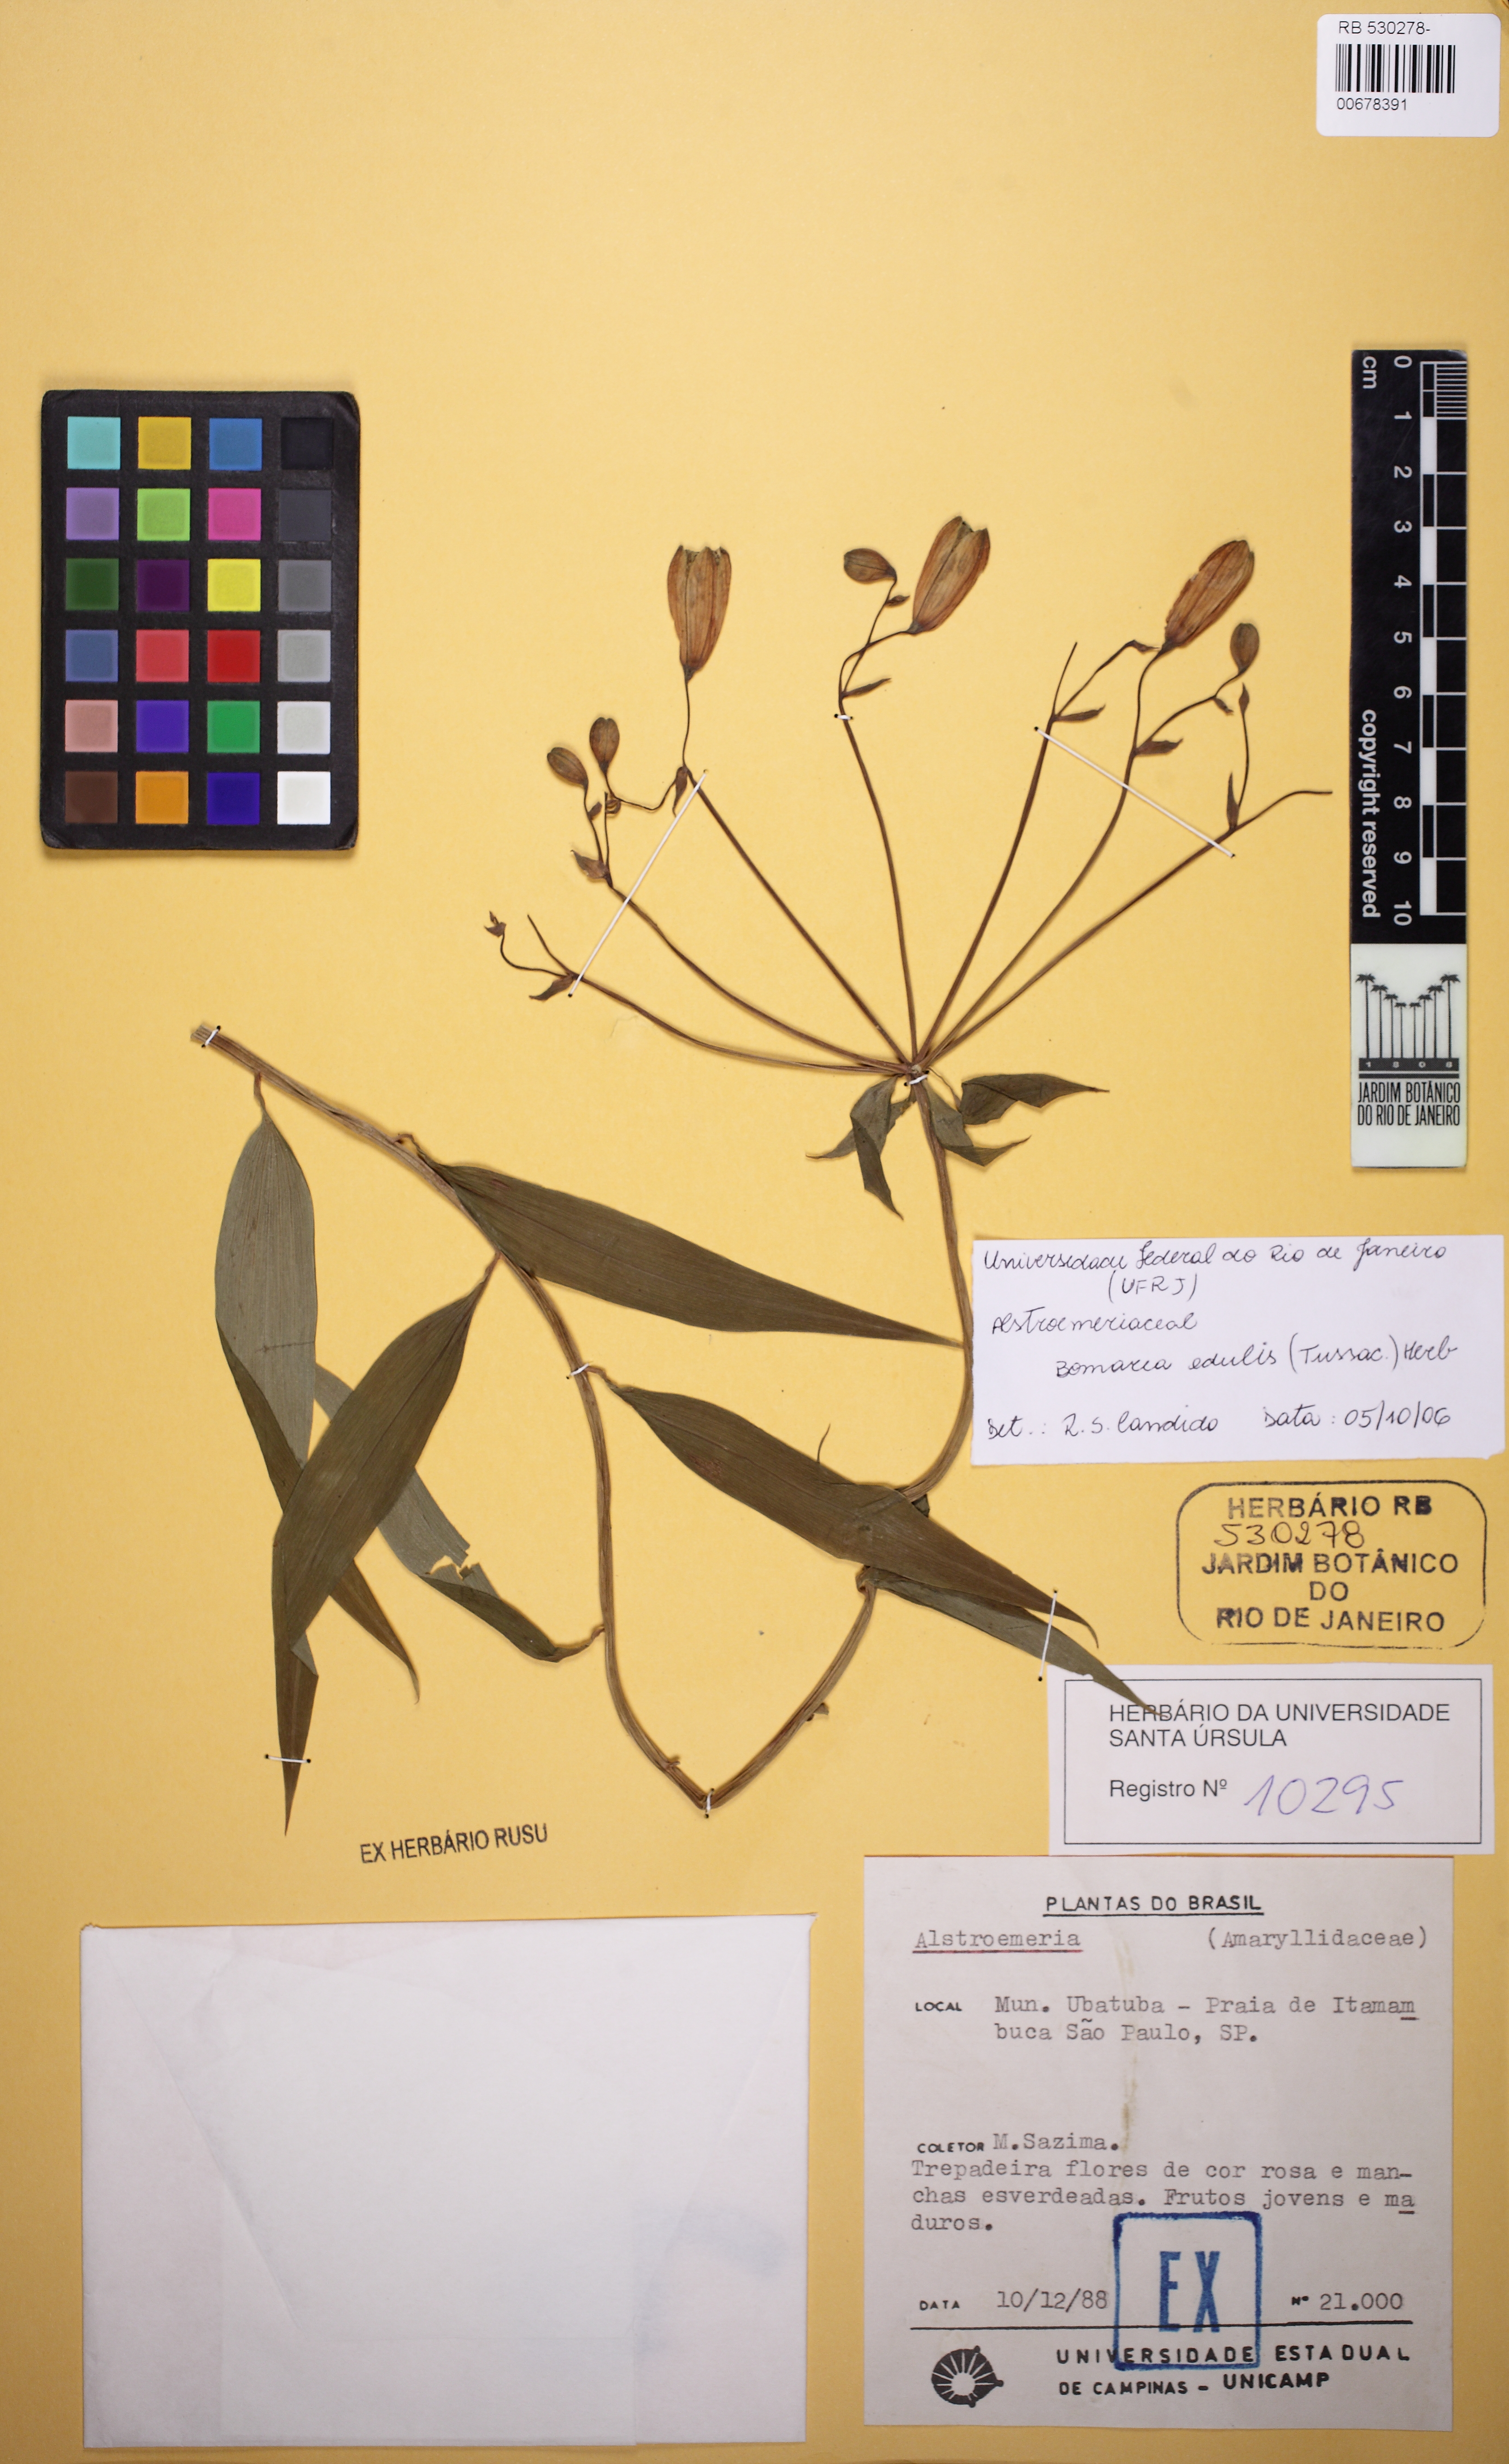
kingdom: Plantae
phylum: Tracheophyta
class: Liliopsida
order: Liliales
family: Alstroemeriaceae
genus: Bomarea
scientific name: Bomarea edulis
